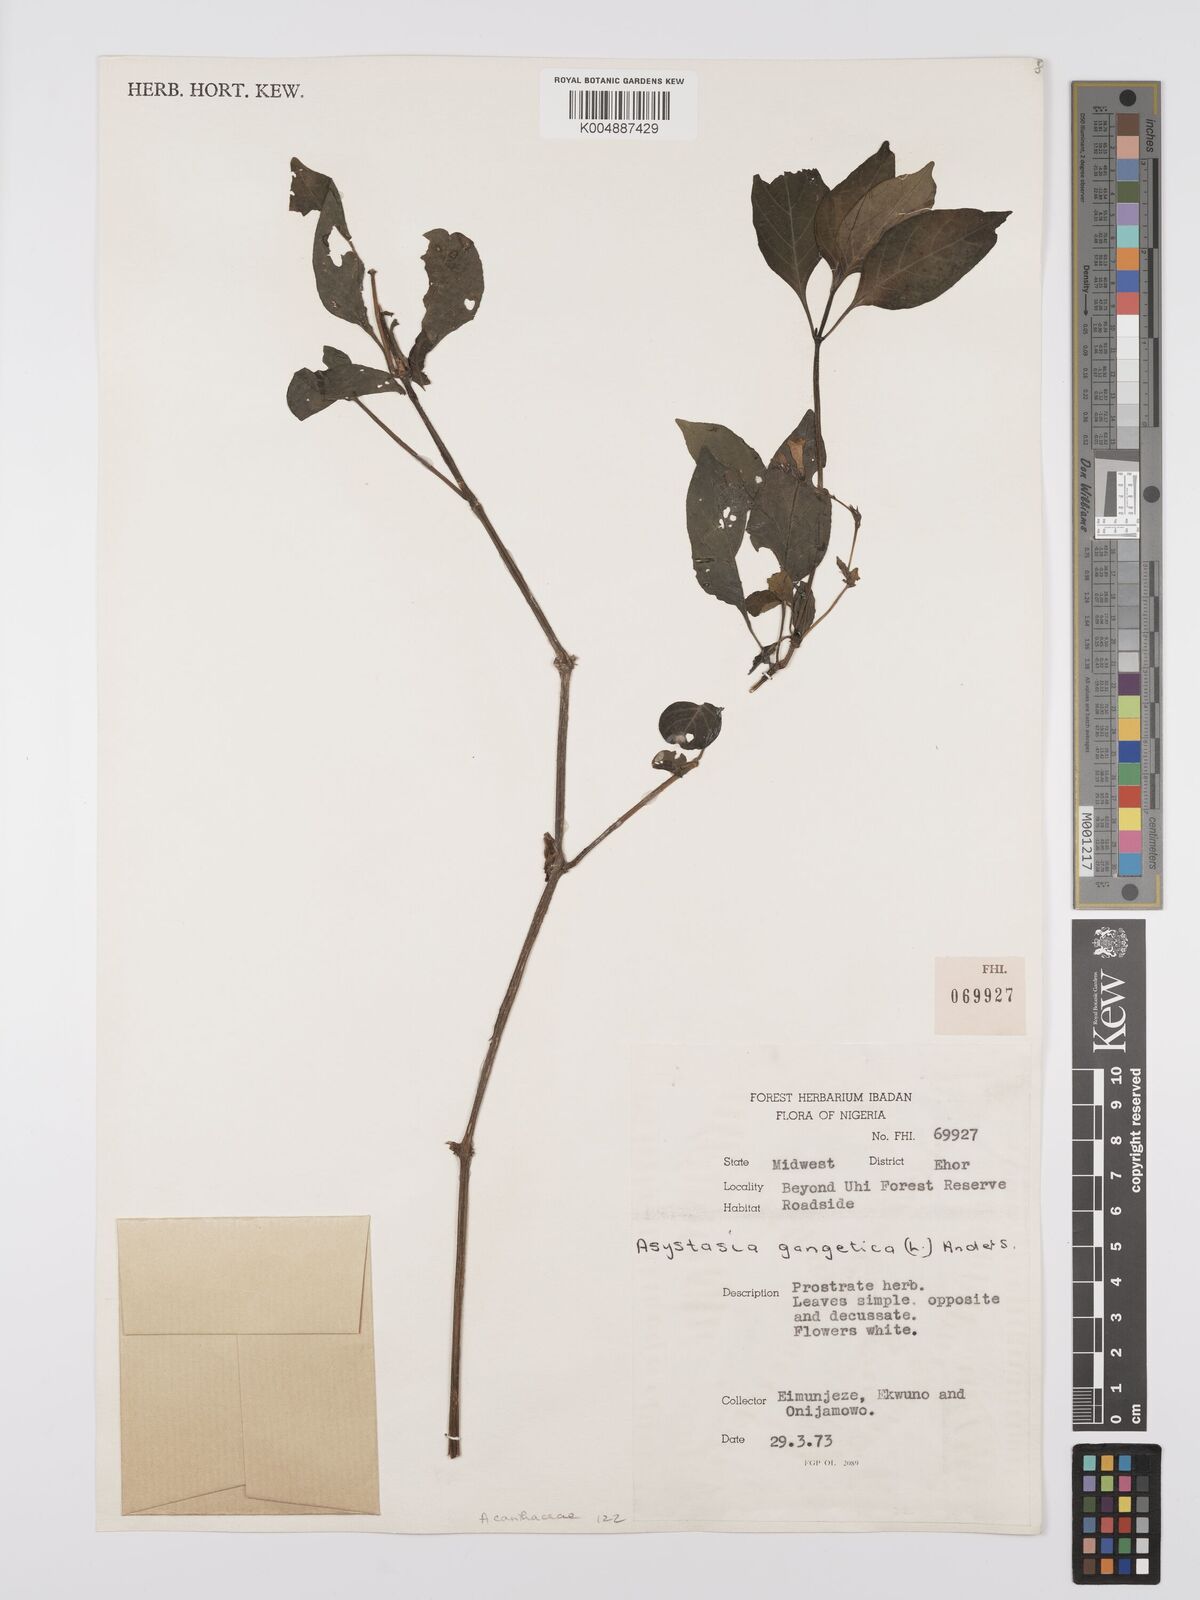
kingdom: Plantae
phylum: Tracheophyta
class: Magnoliopsida
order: Lamiales
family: Acanthaceae
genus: Asystasia
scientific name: Asystasia gangetica
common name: Chinese violet
